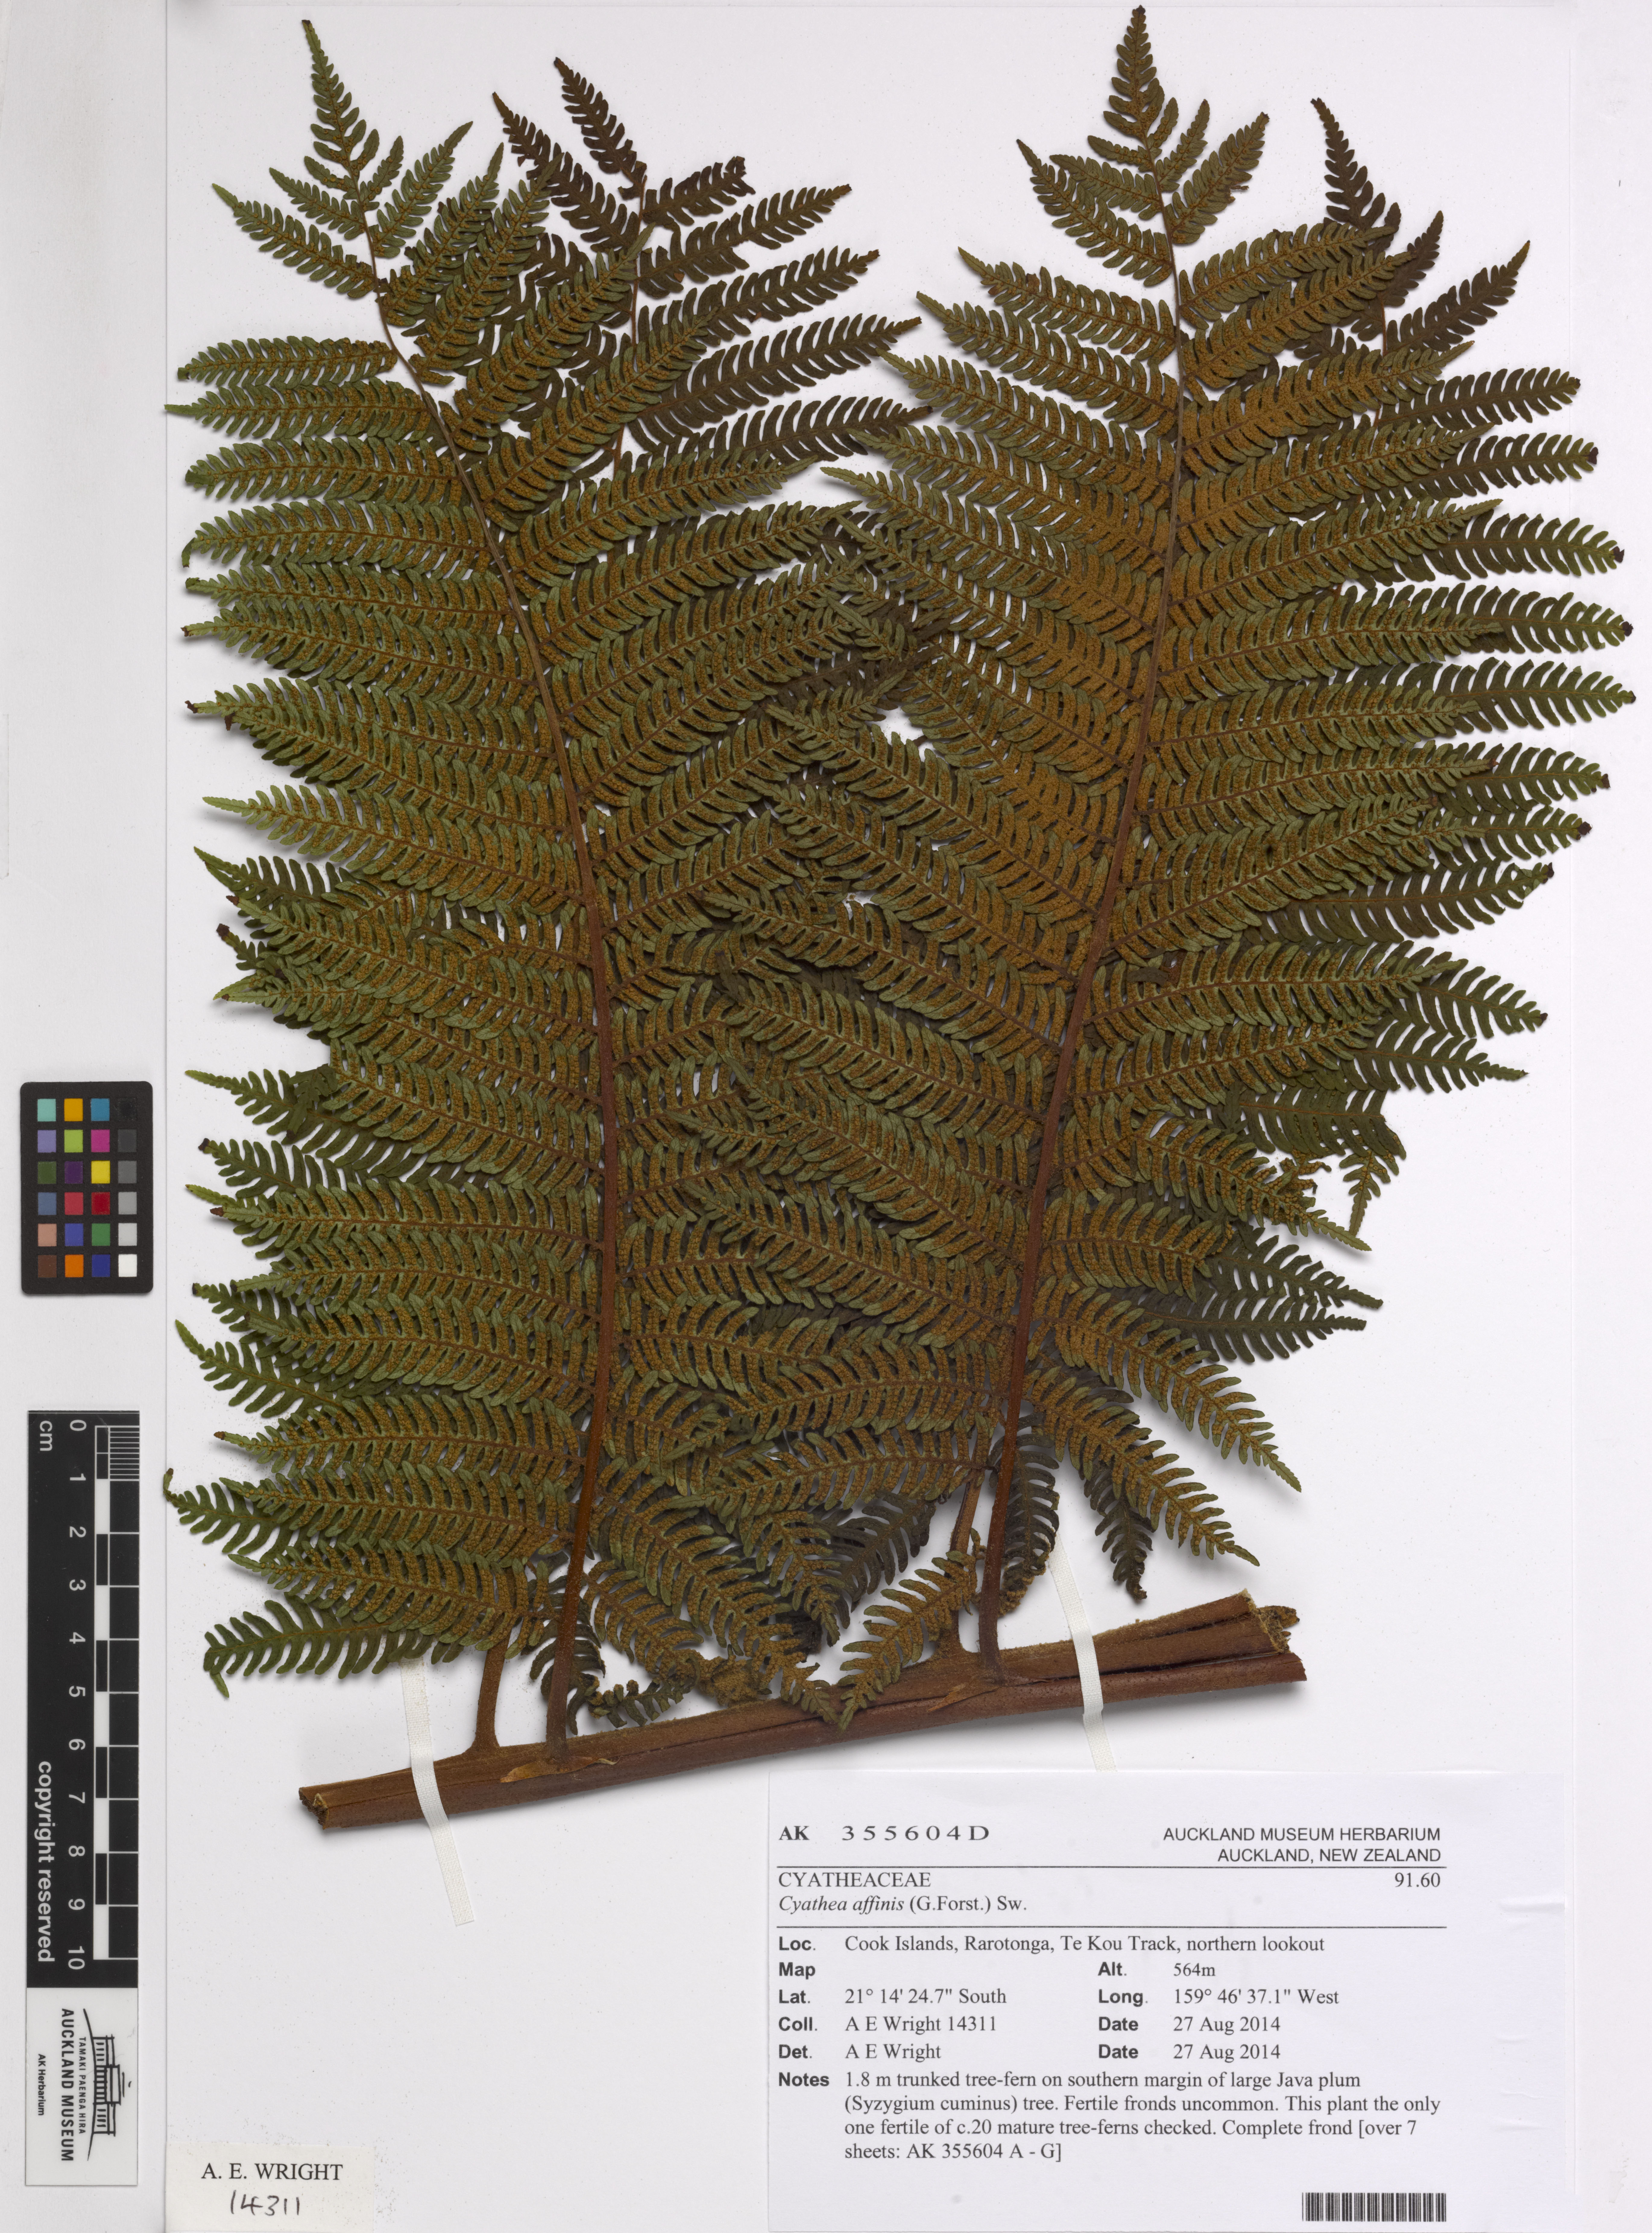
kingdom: Plantae
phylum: Tracheophyta
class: Polypodiopsida
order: Cyatheales
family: Cyatheaceae
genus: Alsophila
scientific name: Alsophila tahitensis
